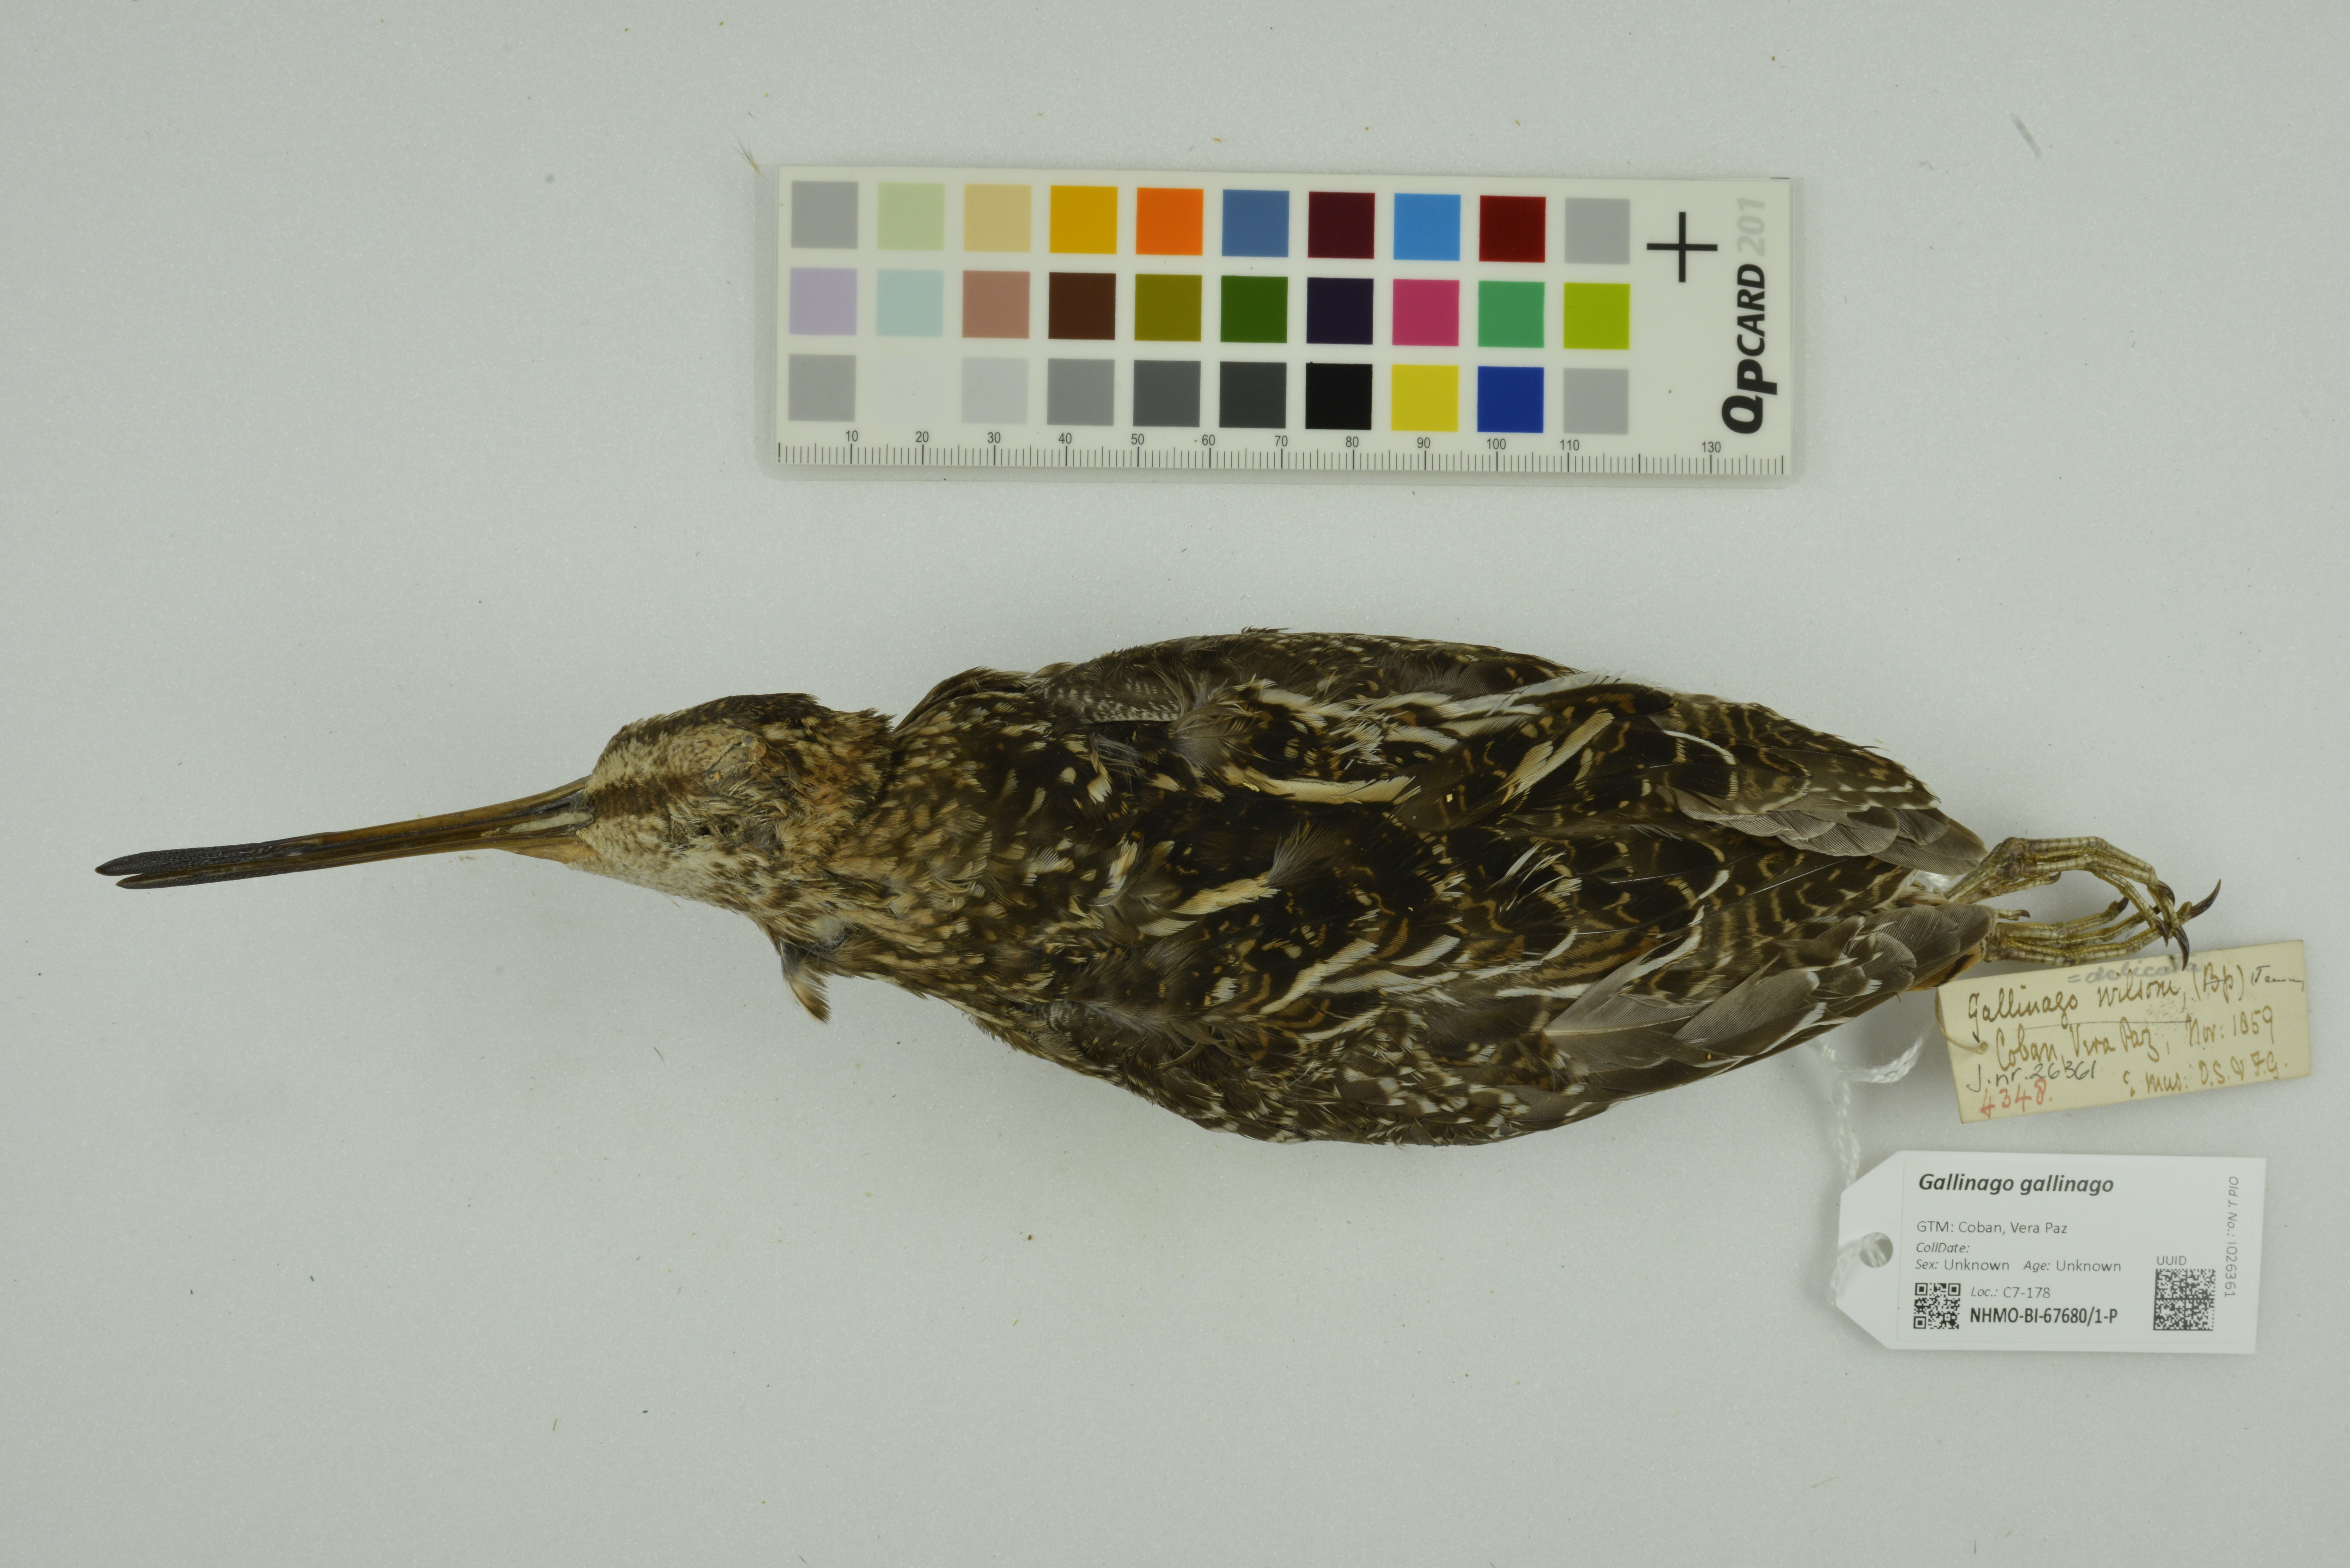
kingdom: Animalia
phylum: Chordata
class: Aves
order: Charadriiformes
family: Scolopacidae
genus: Gallinago
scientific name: Gallinago gallinago
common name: Common snipe
